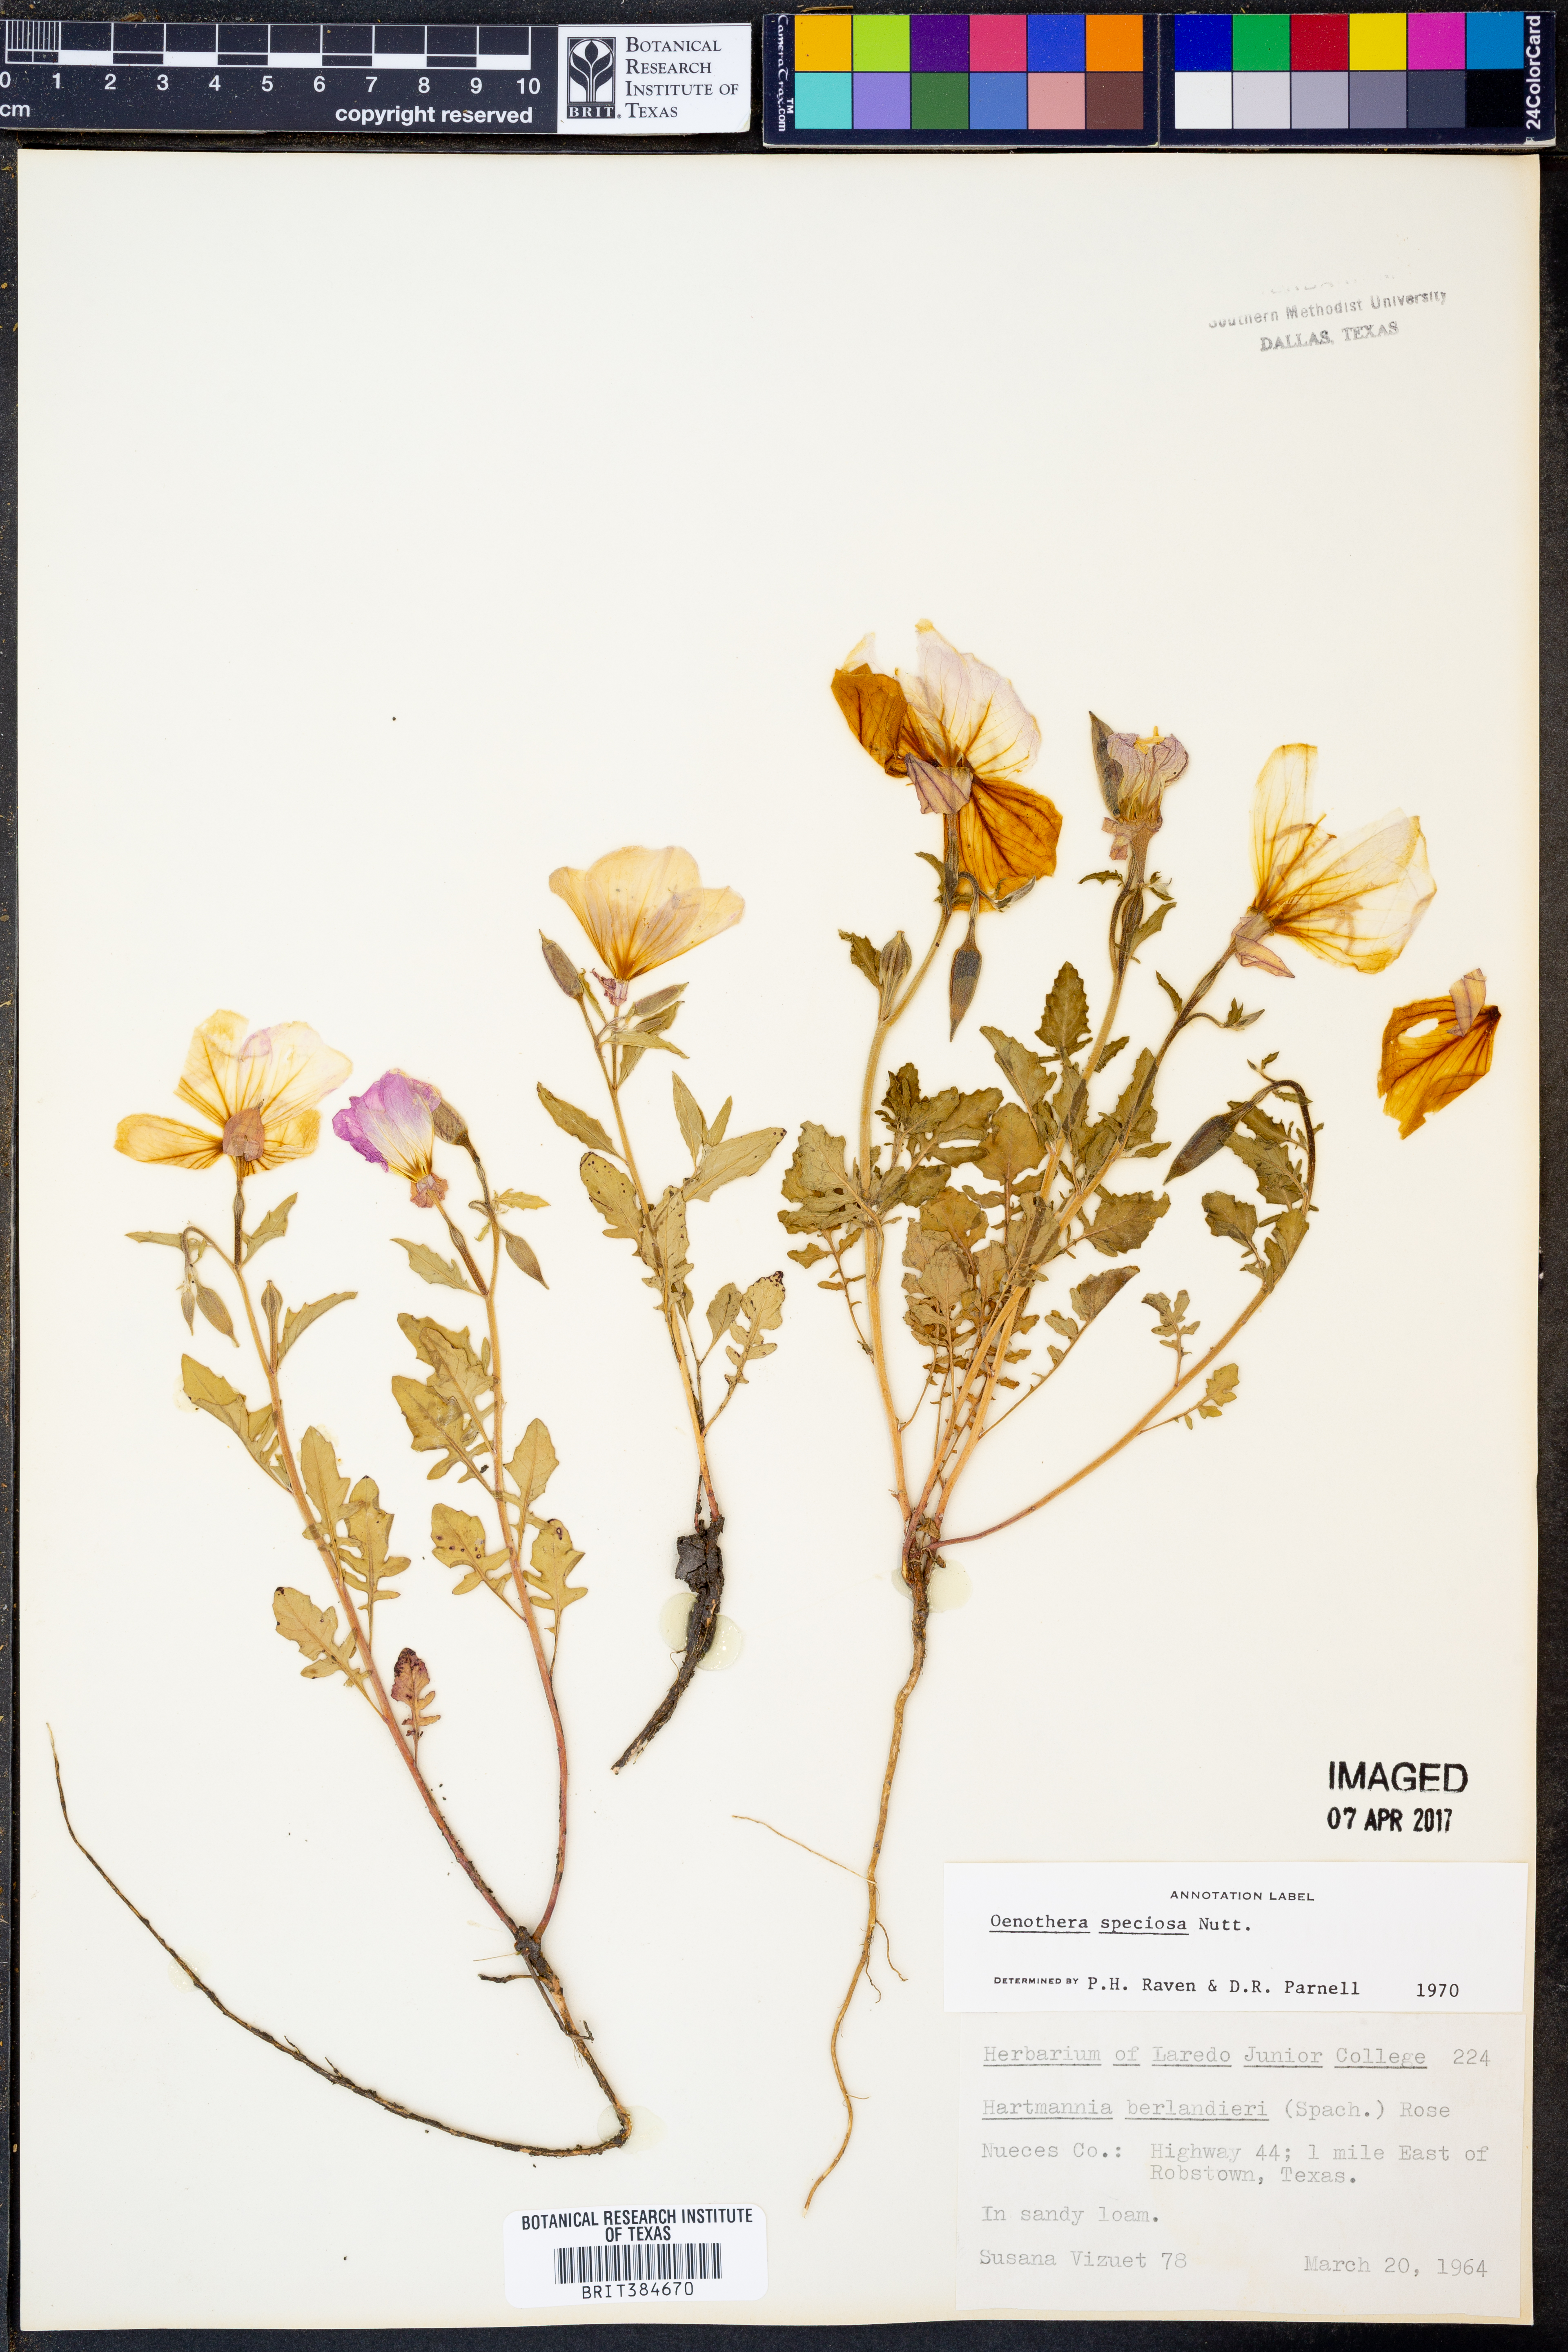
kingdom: Plantae
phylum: Tracheophyta
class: Magnoliopsida
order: Myrtales
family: Onagraceae
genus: Oenothera
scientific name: Oenothera speciosa
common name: White evening-primrose
